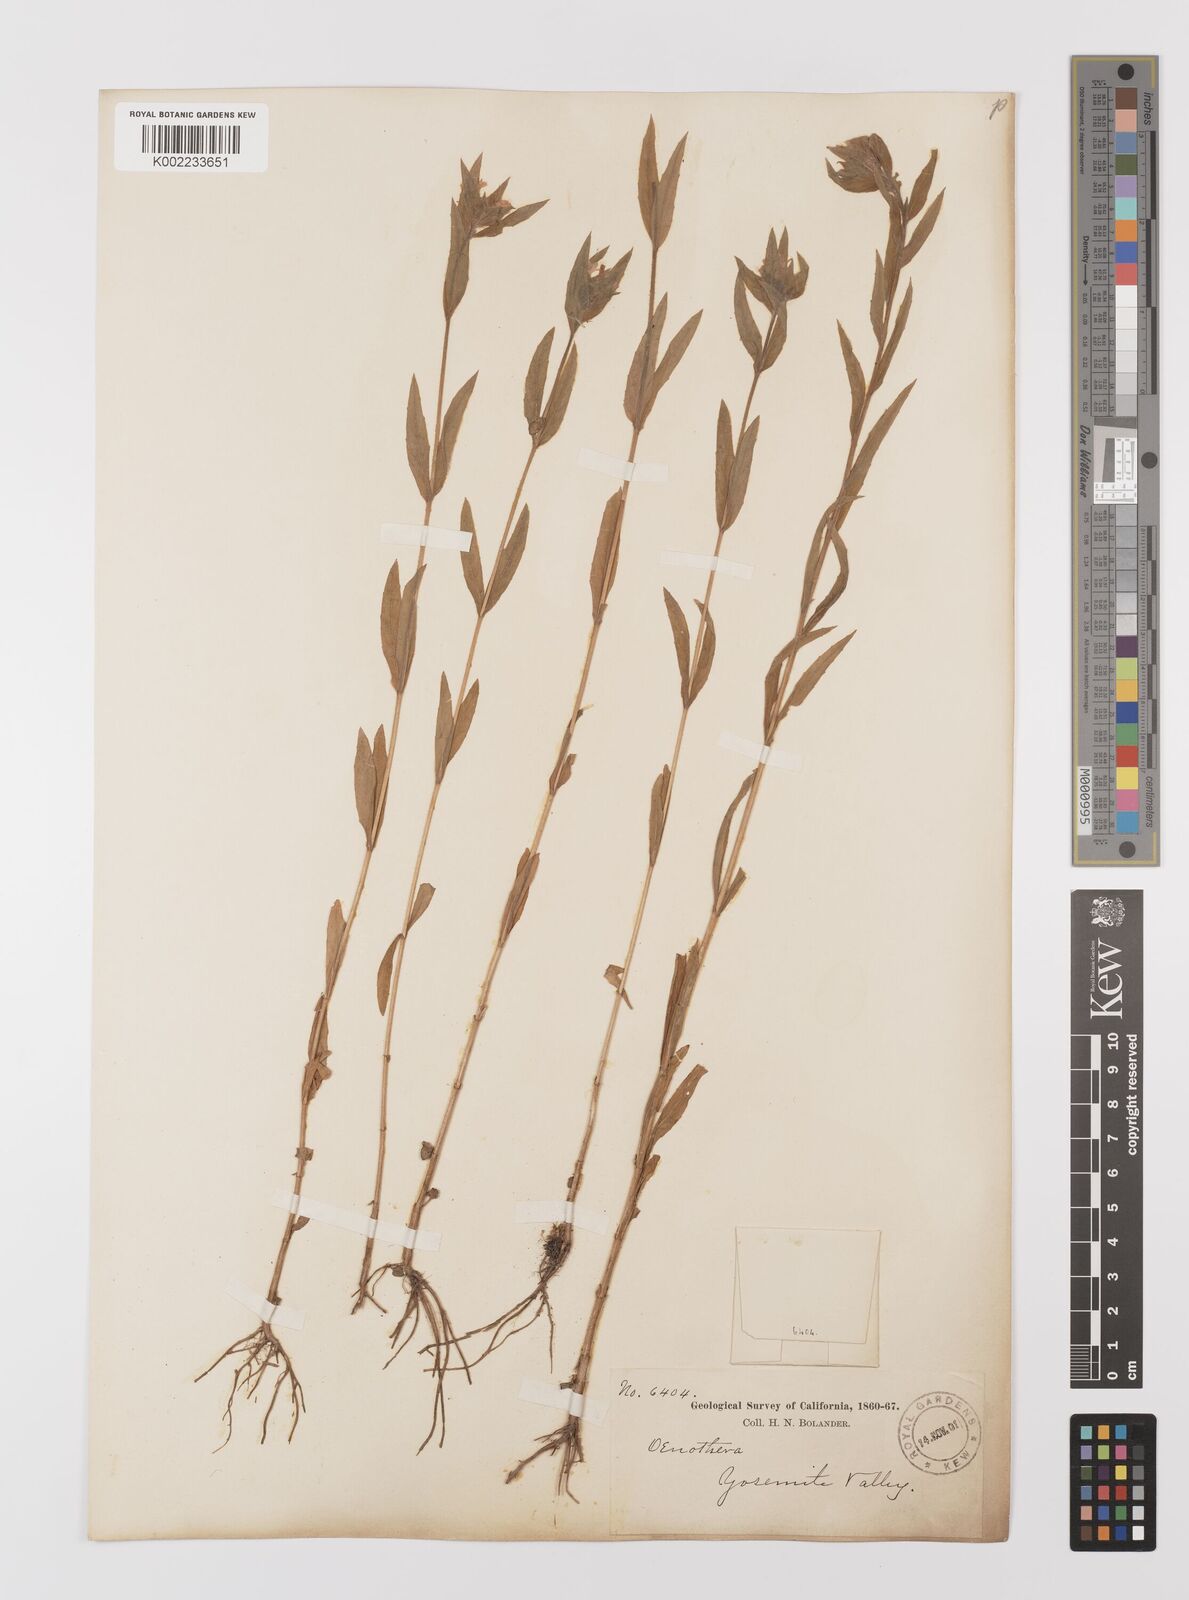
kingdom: Plantae
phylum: Tracheophyta
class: Magnoliopsida
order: Myrtales
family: Onagraceae
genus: Epilobium
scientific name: Epilobium densiflorum
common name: Dense spike-primrose
